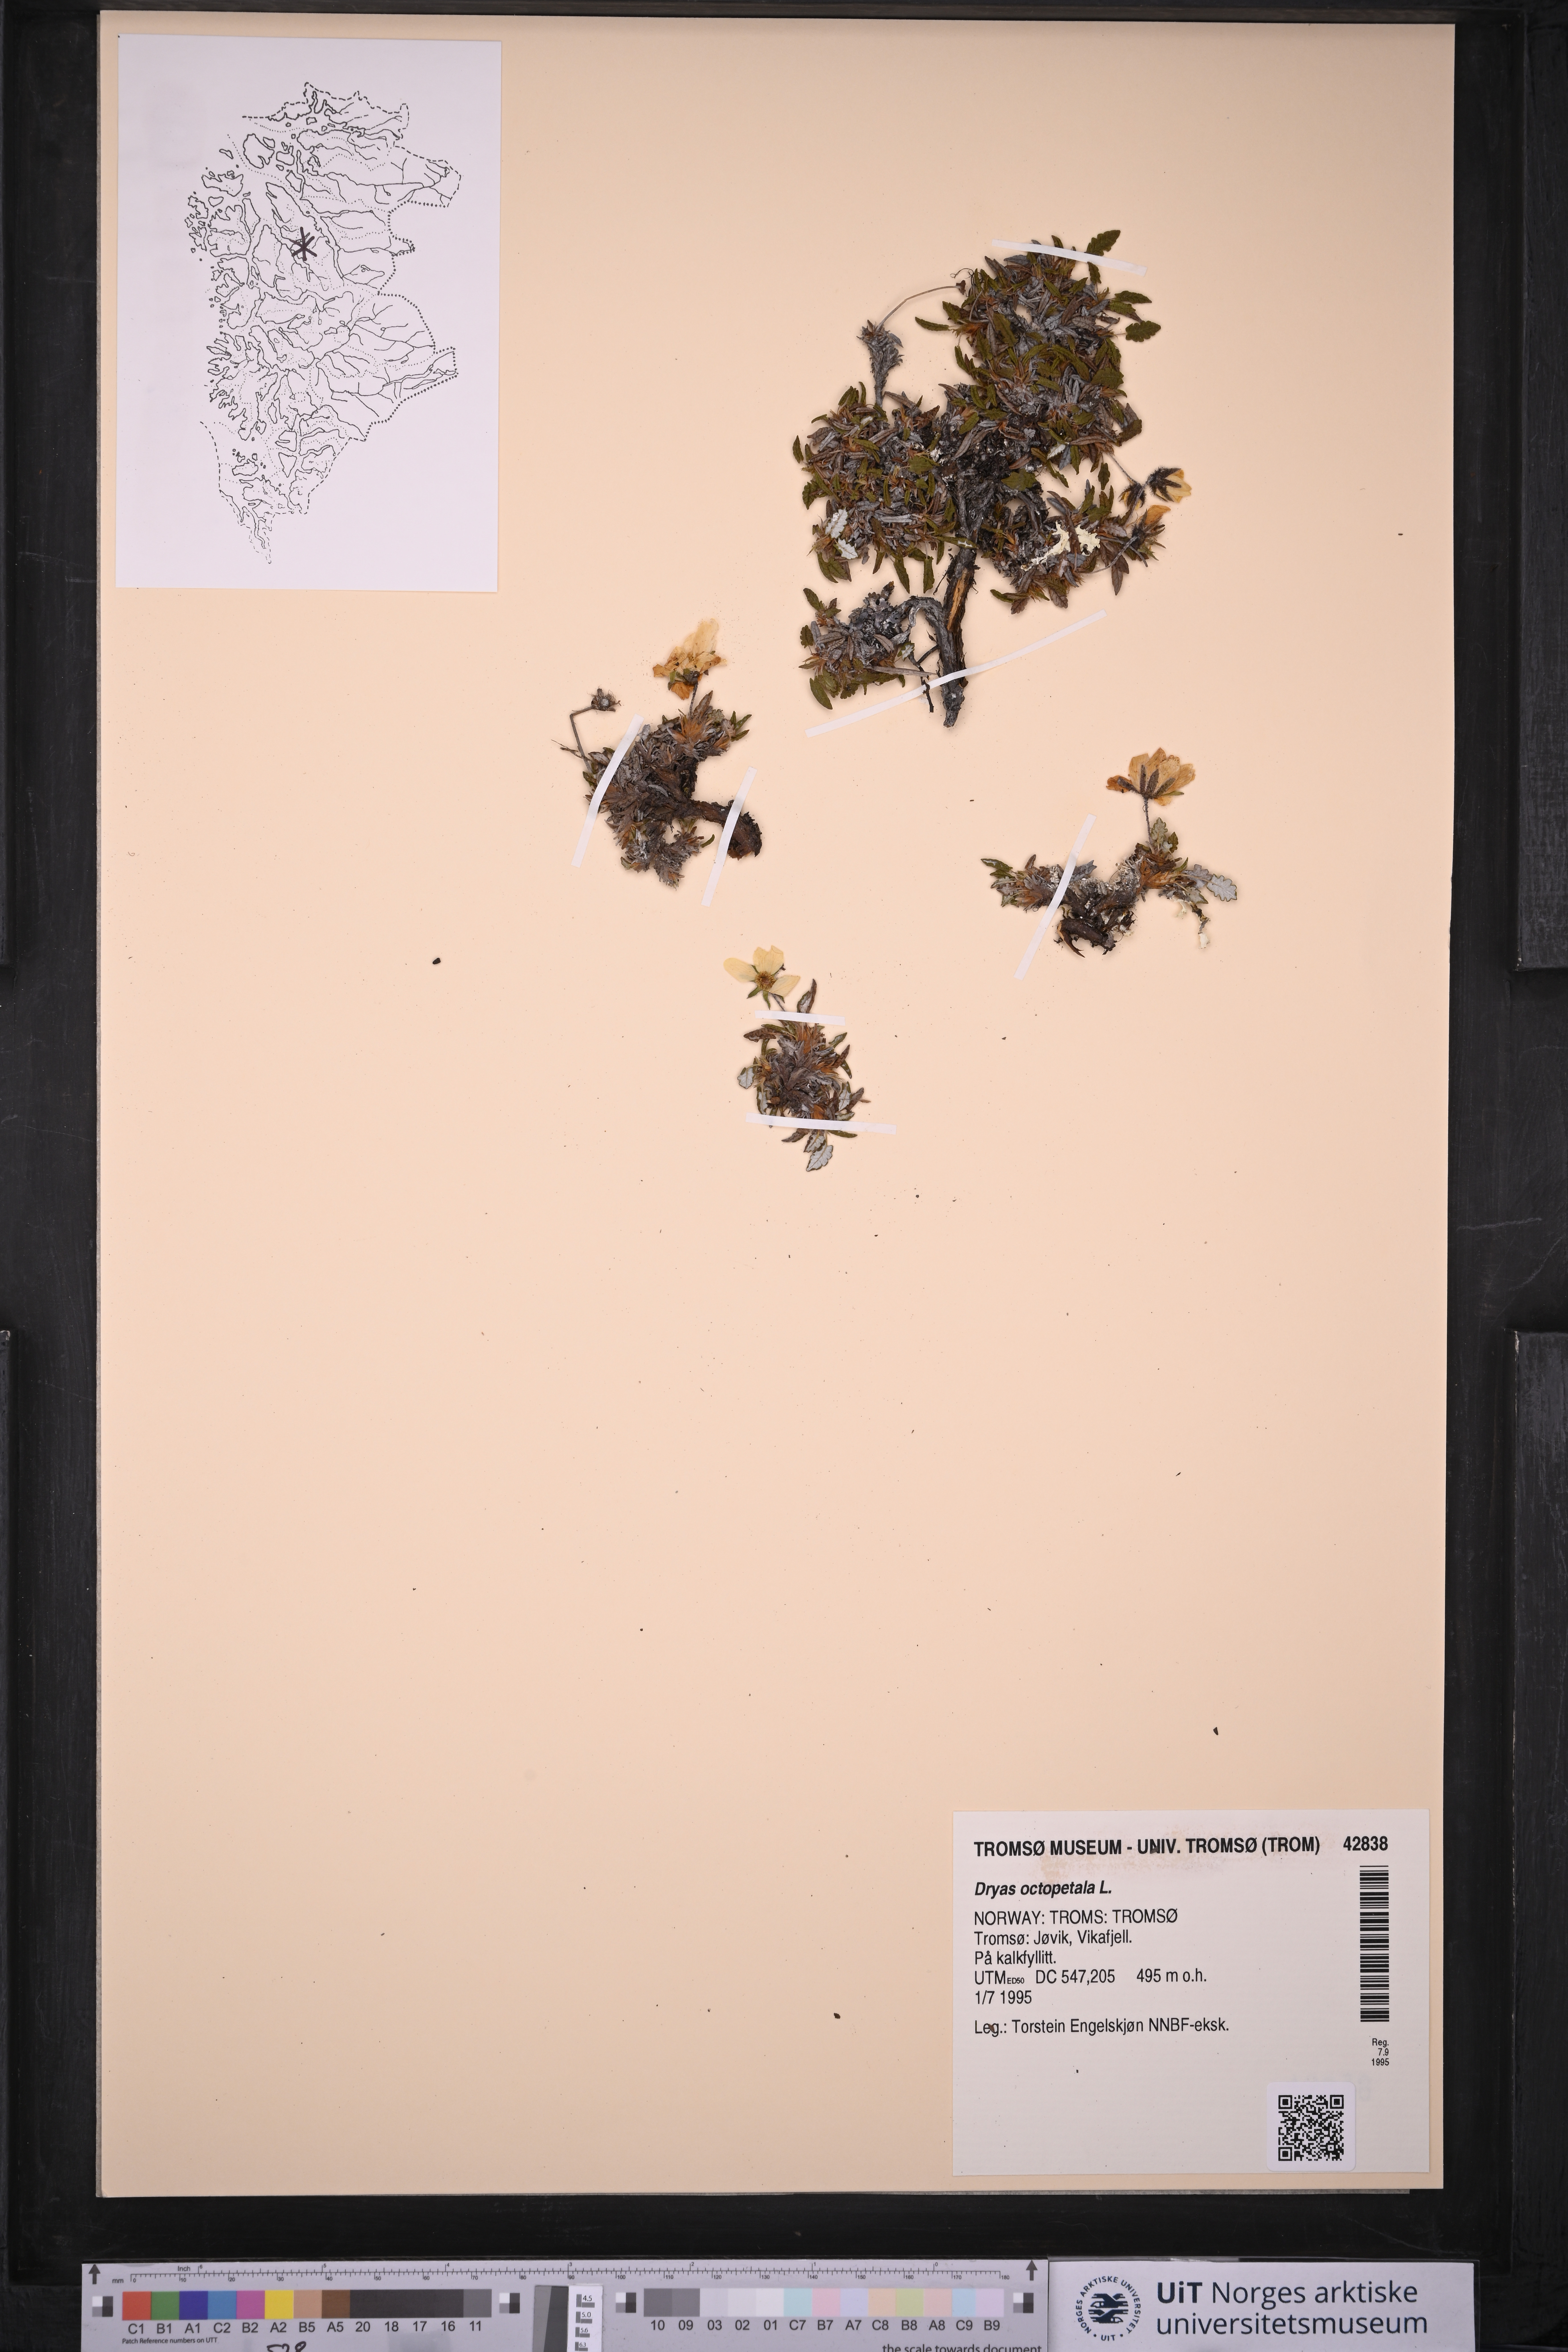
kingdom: Plantae
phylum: Tracheophyta
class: Magnoliopsida
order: Rosales
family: Rosaceae
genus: Dryas
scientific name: Dryas octopetala
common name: Eight-petal mountain-avens
